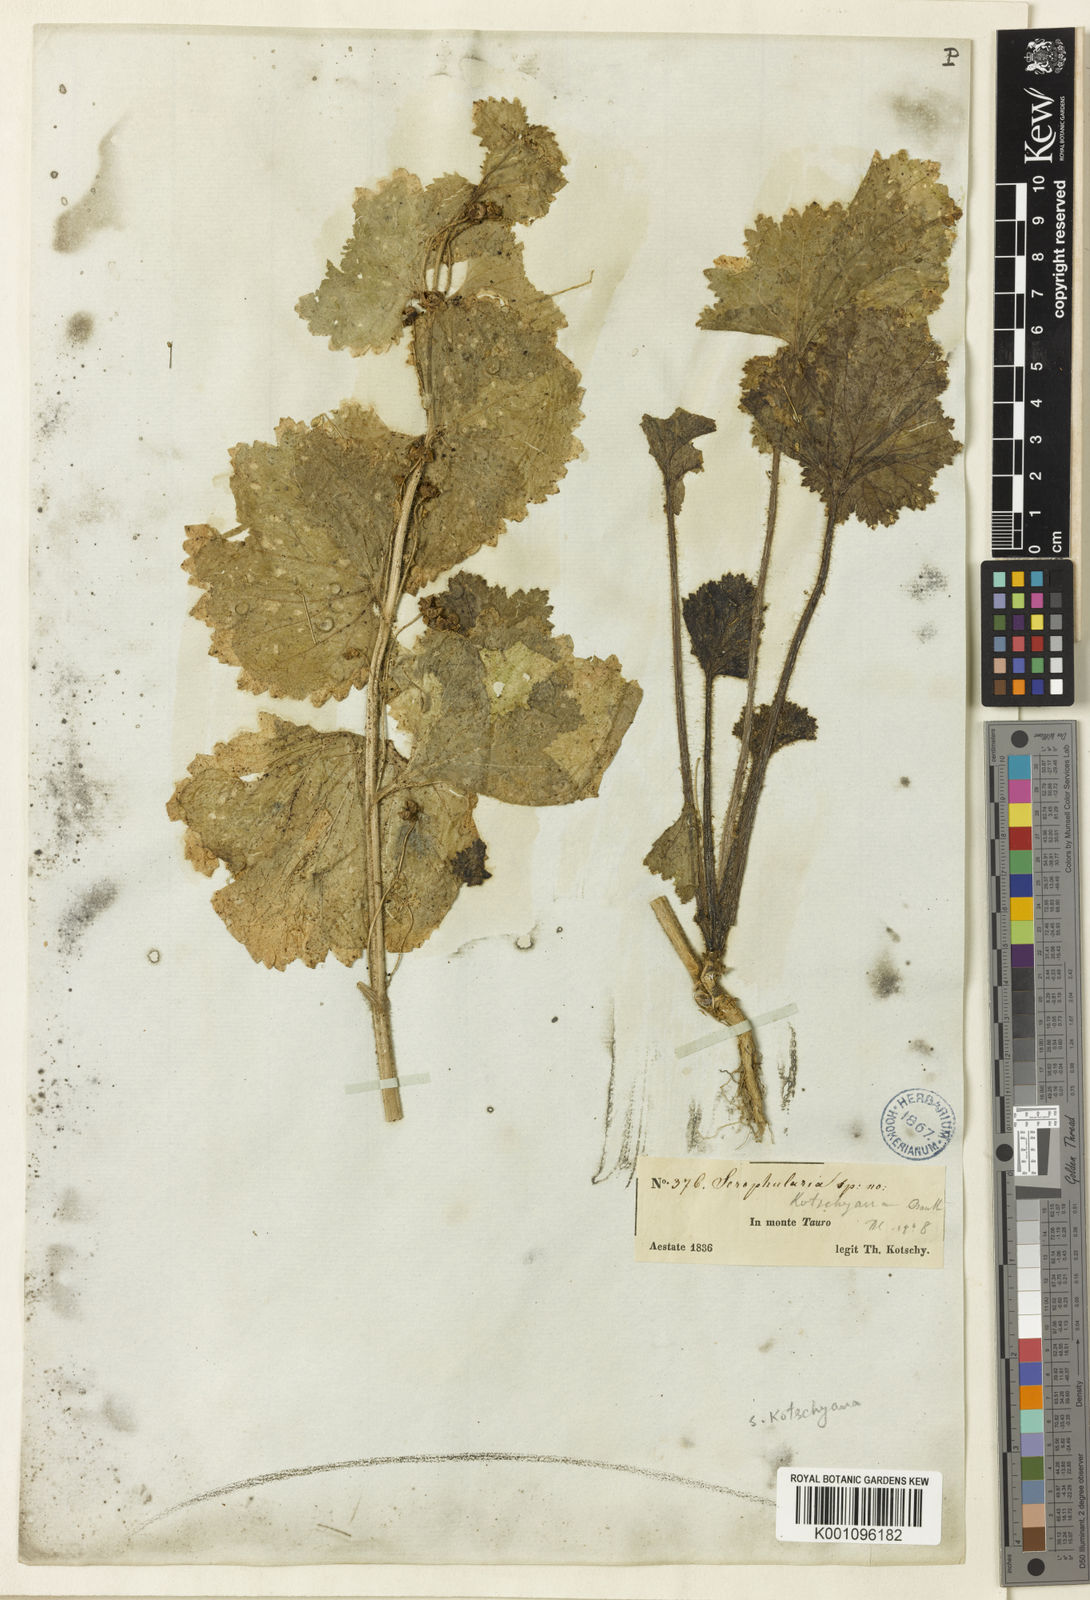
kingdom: Plantae
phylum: Tracheophyta
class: Magnoliopsida
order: Lamiales
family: Scrophulariaceae
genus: Scrophularia
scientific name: Scrophularia kotschyana
